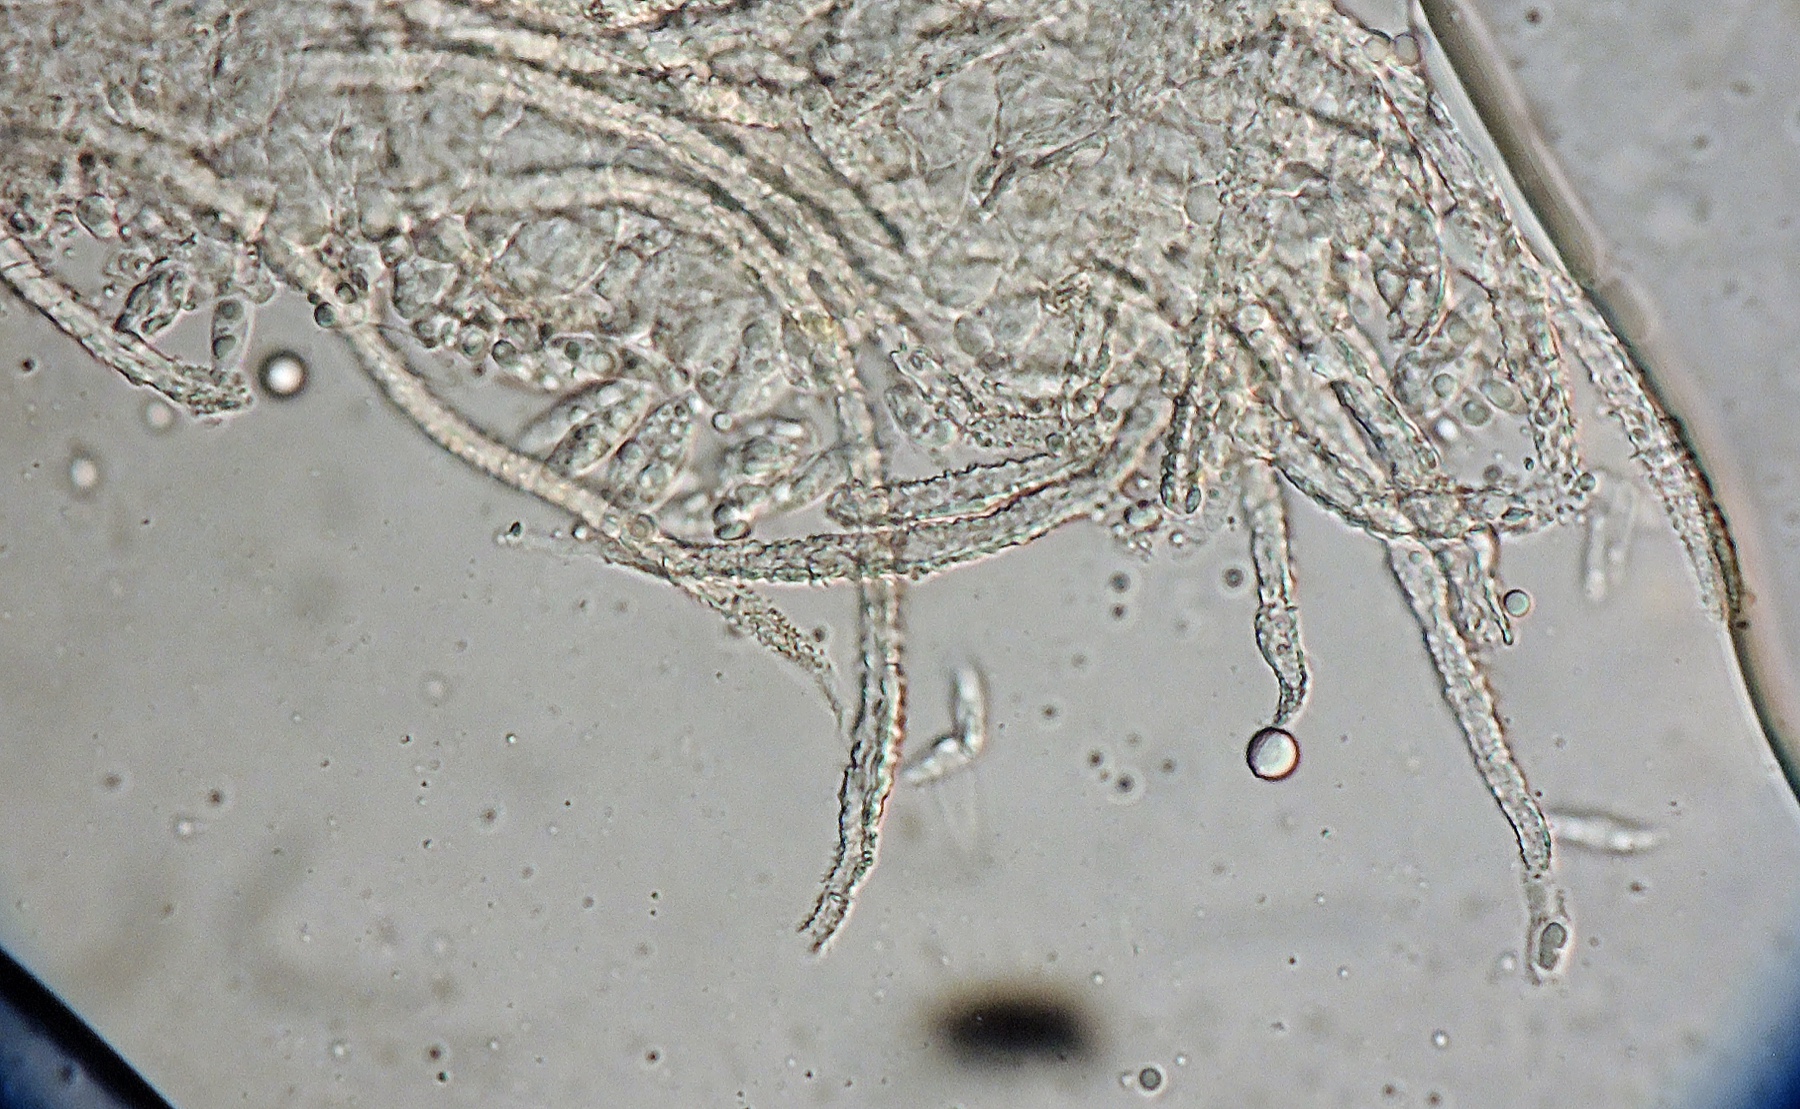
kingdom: Fungi
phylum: Basidiomycota
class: Agaricomycetes
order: Agaricales
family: Niaceae
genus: Flagelloscypha
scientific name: Flagelloscypha
